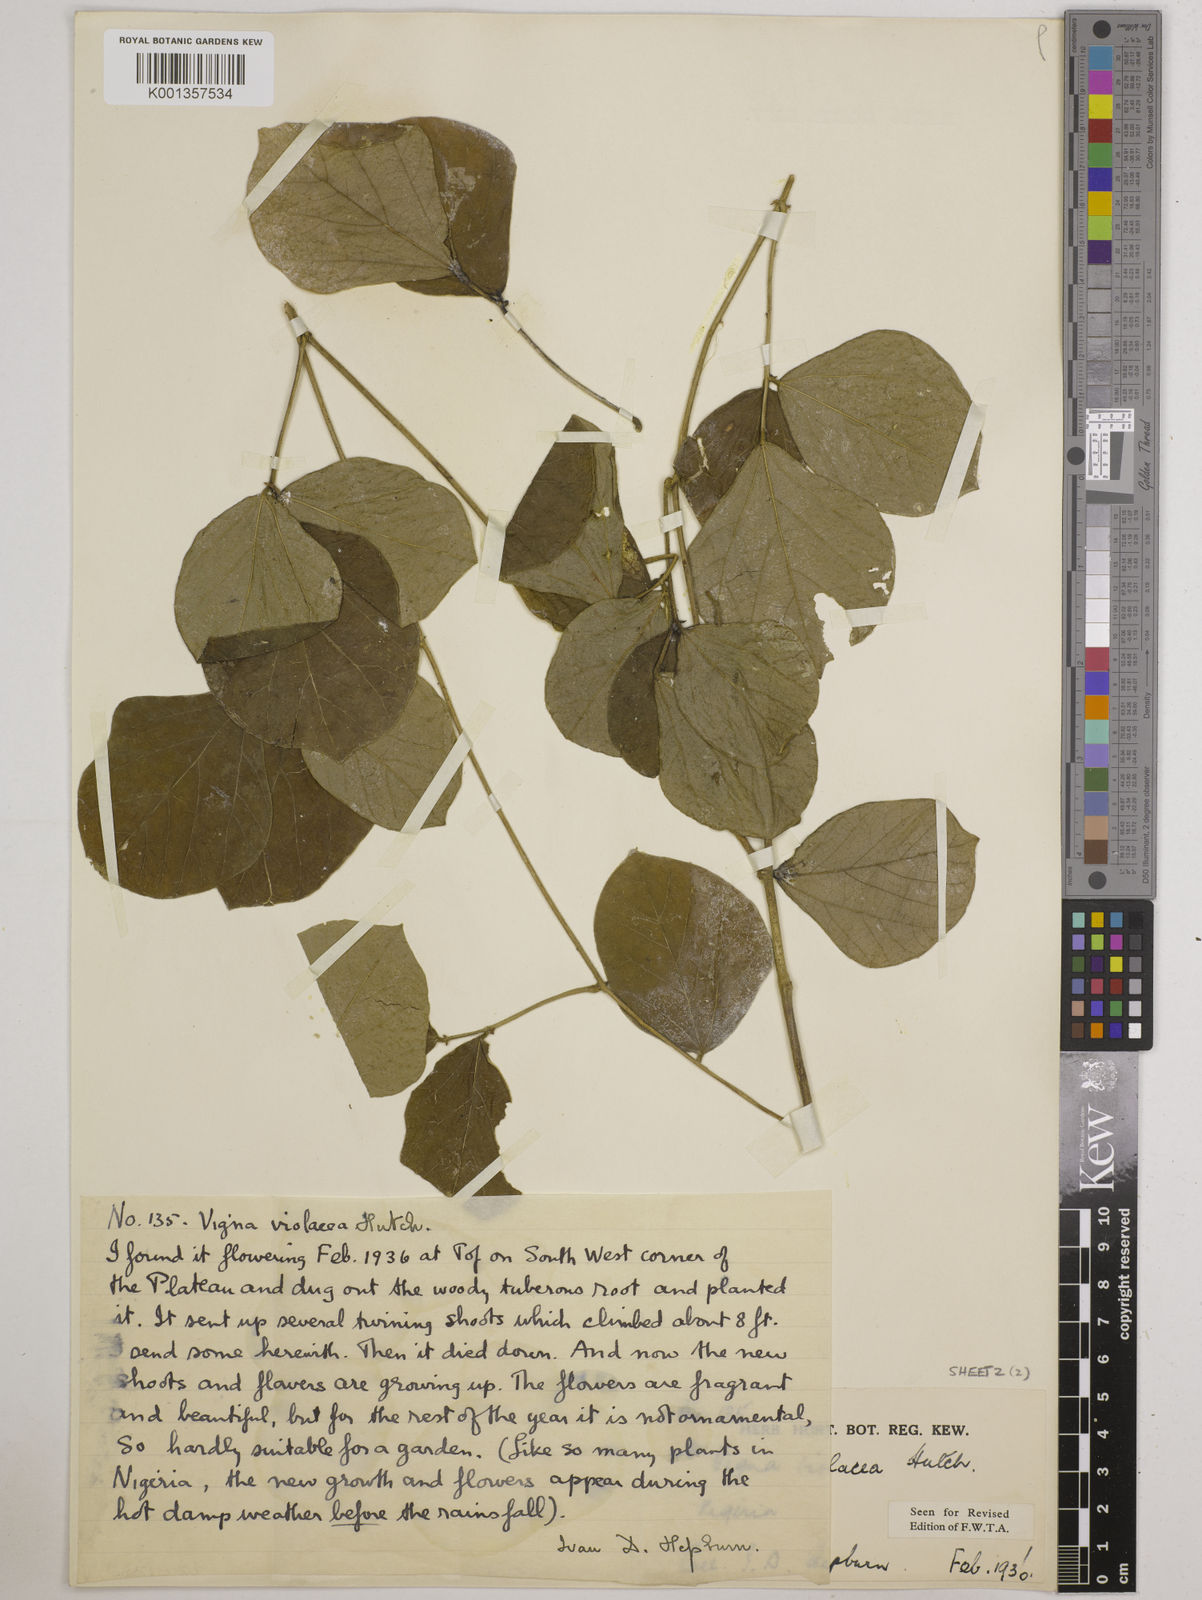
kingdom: Plantae
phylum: Tracheophyta
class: Magnoliopsida
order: Fabales
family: Fabaceae
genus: Vigna
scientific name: Vigna frutescens
